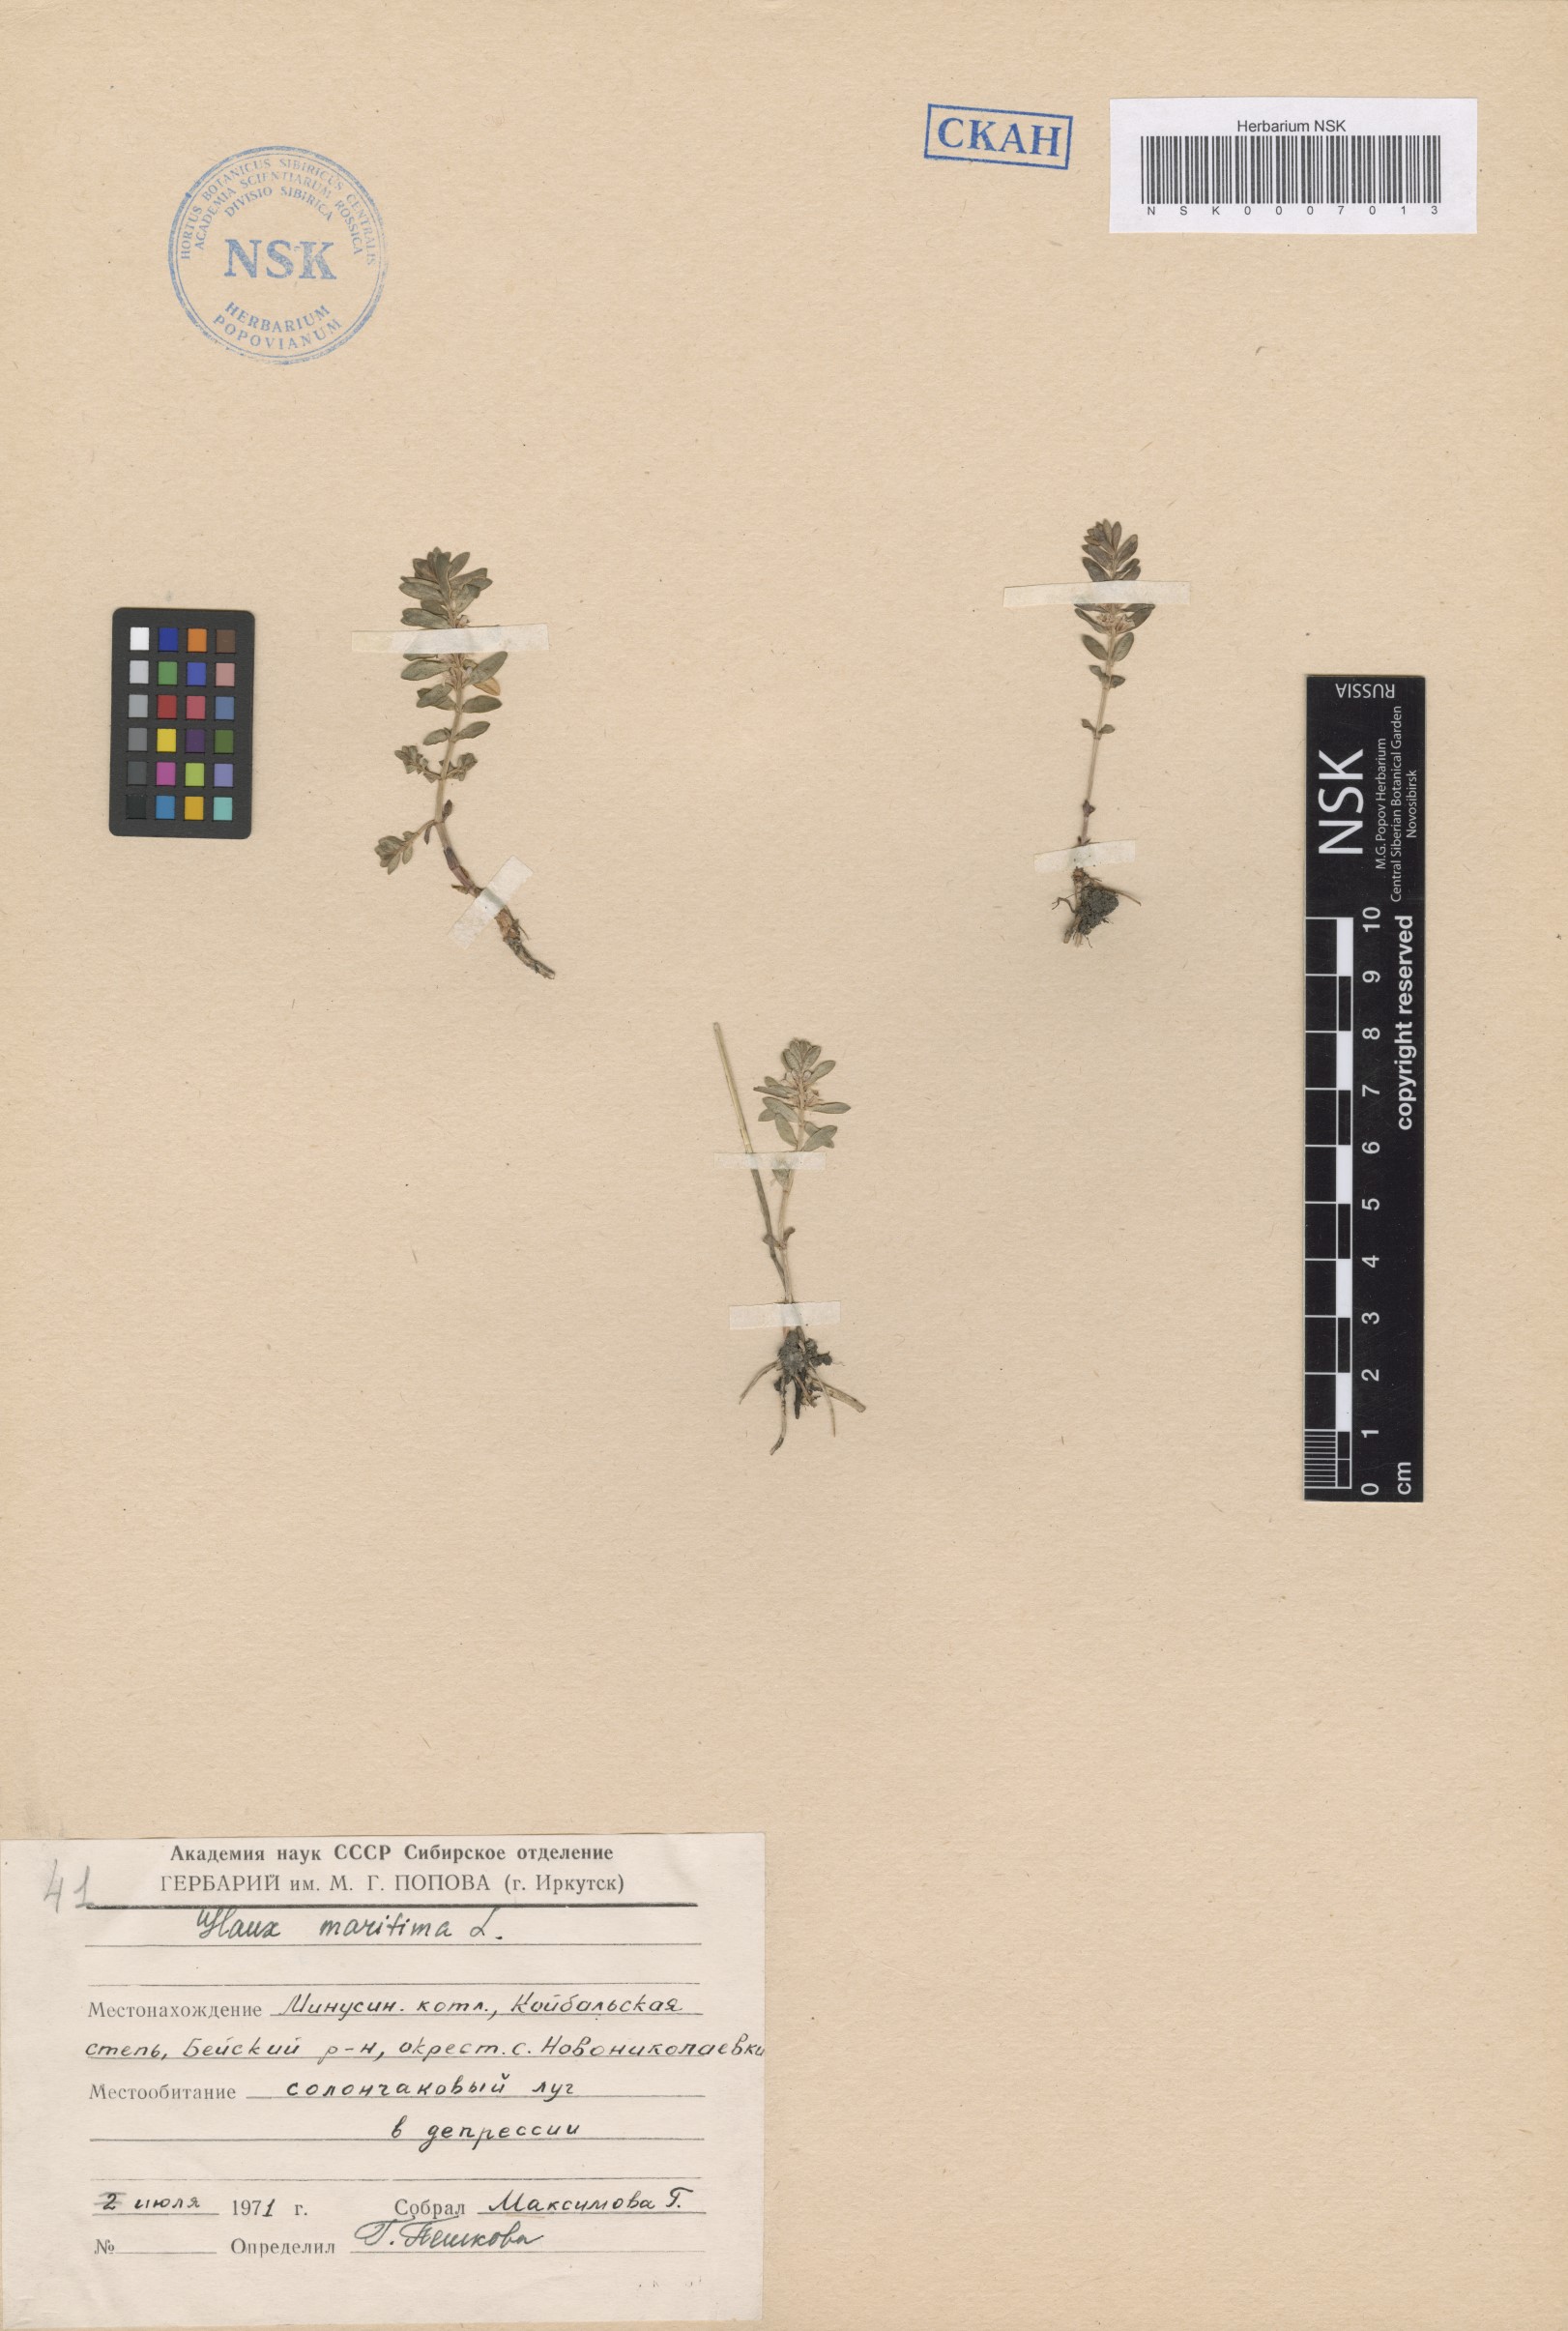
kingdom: Plantae
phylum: Tracheophyta
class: Magnoliopsida
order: Ericales
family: Primulaceae
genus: Lysimachia
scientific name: Lysimachia maritima
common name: Sea milkwort
